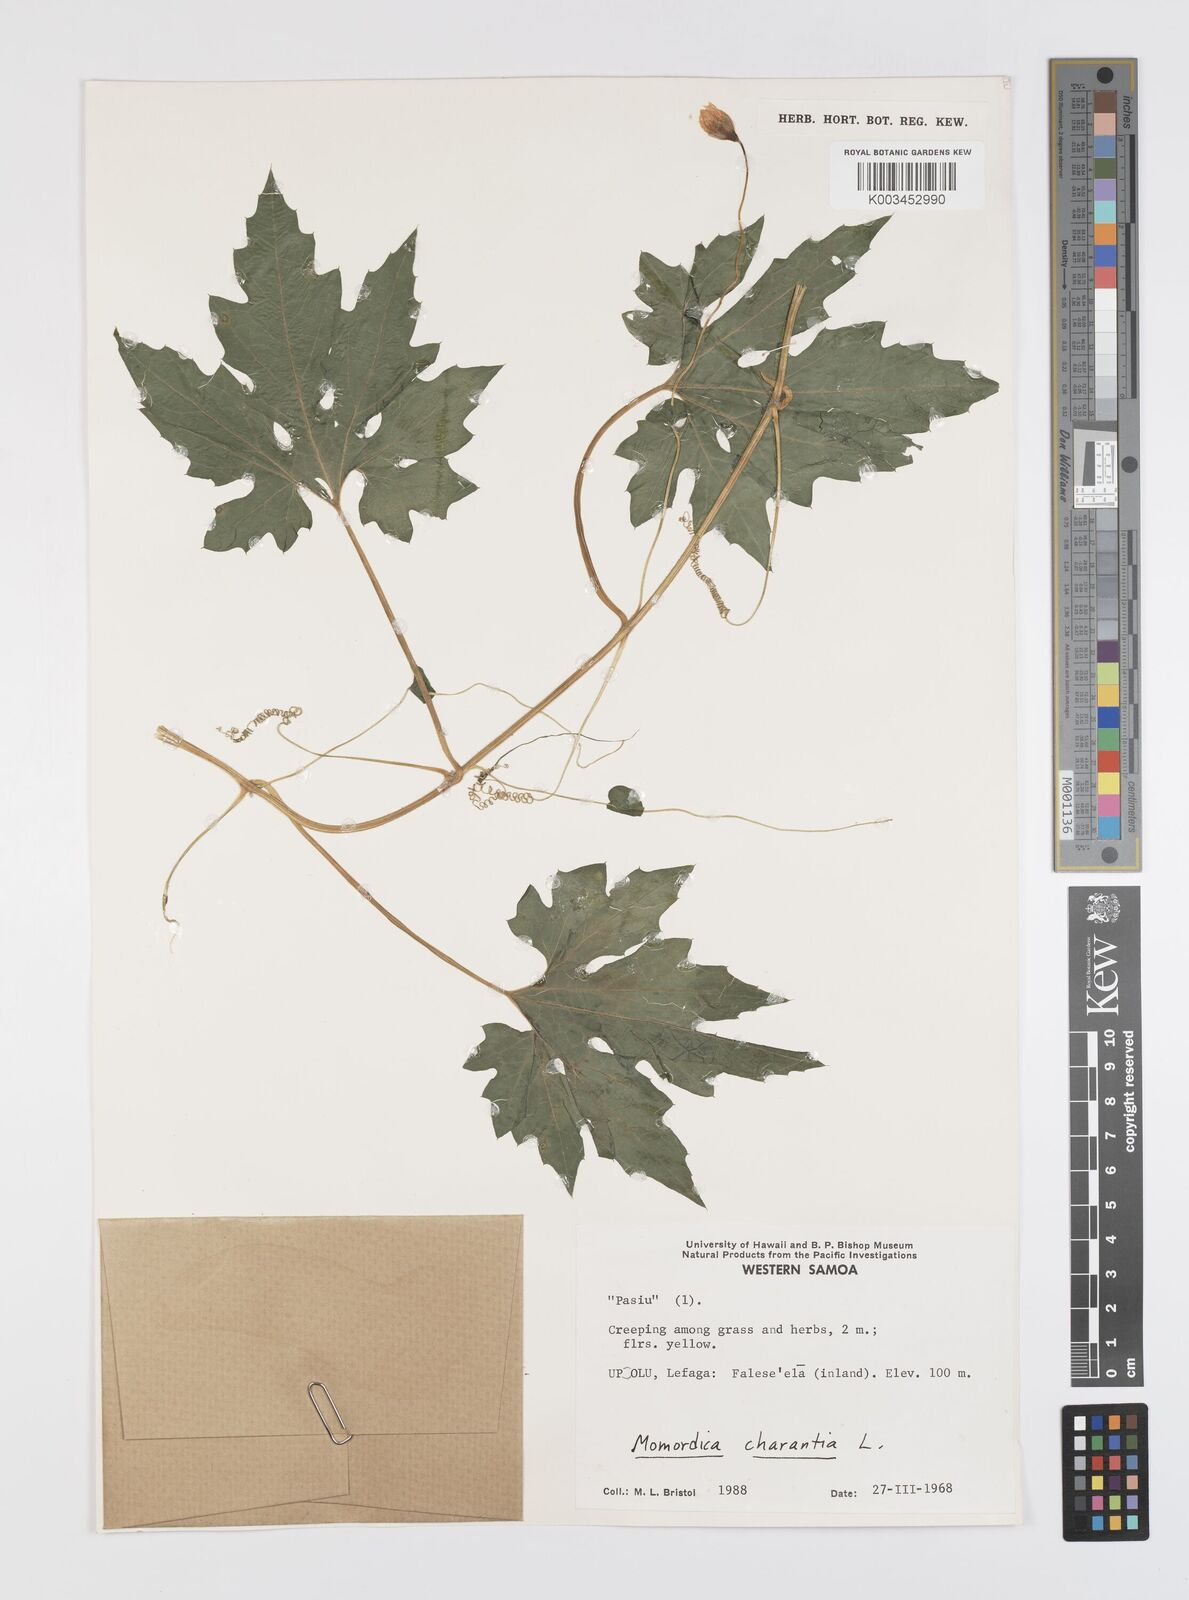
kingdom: Plantae
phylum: Tracheophyta
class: Magnoliopsida
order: Cucurbitales
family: Cucurbitaceae
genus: Momordica
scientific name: Momordica charantia
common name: Balsampear
